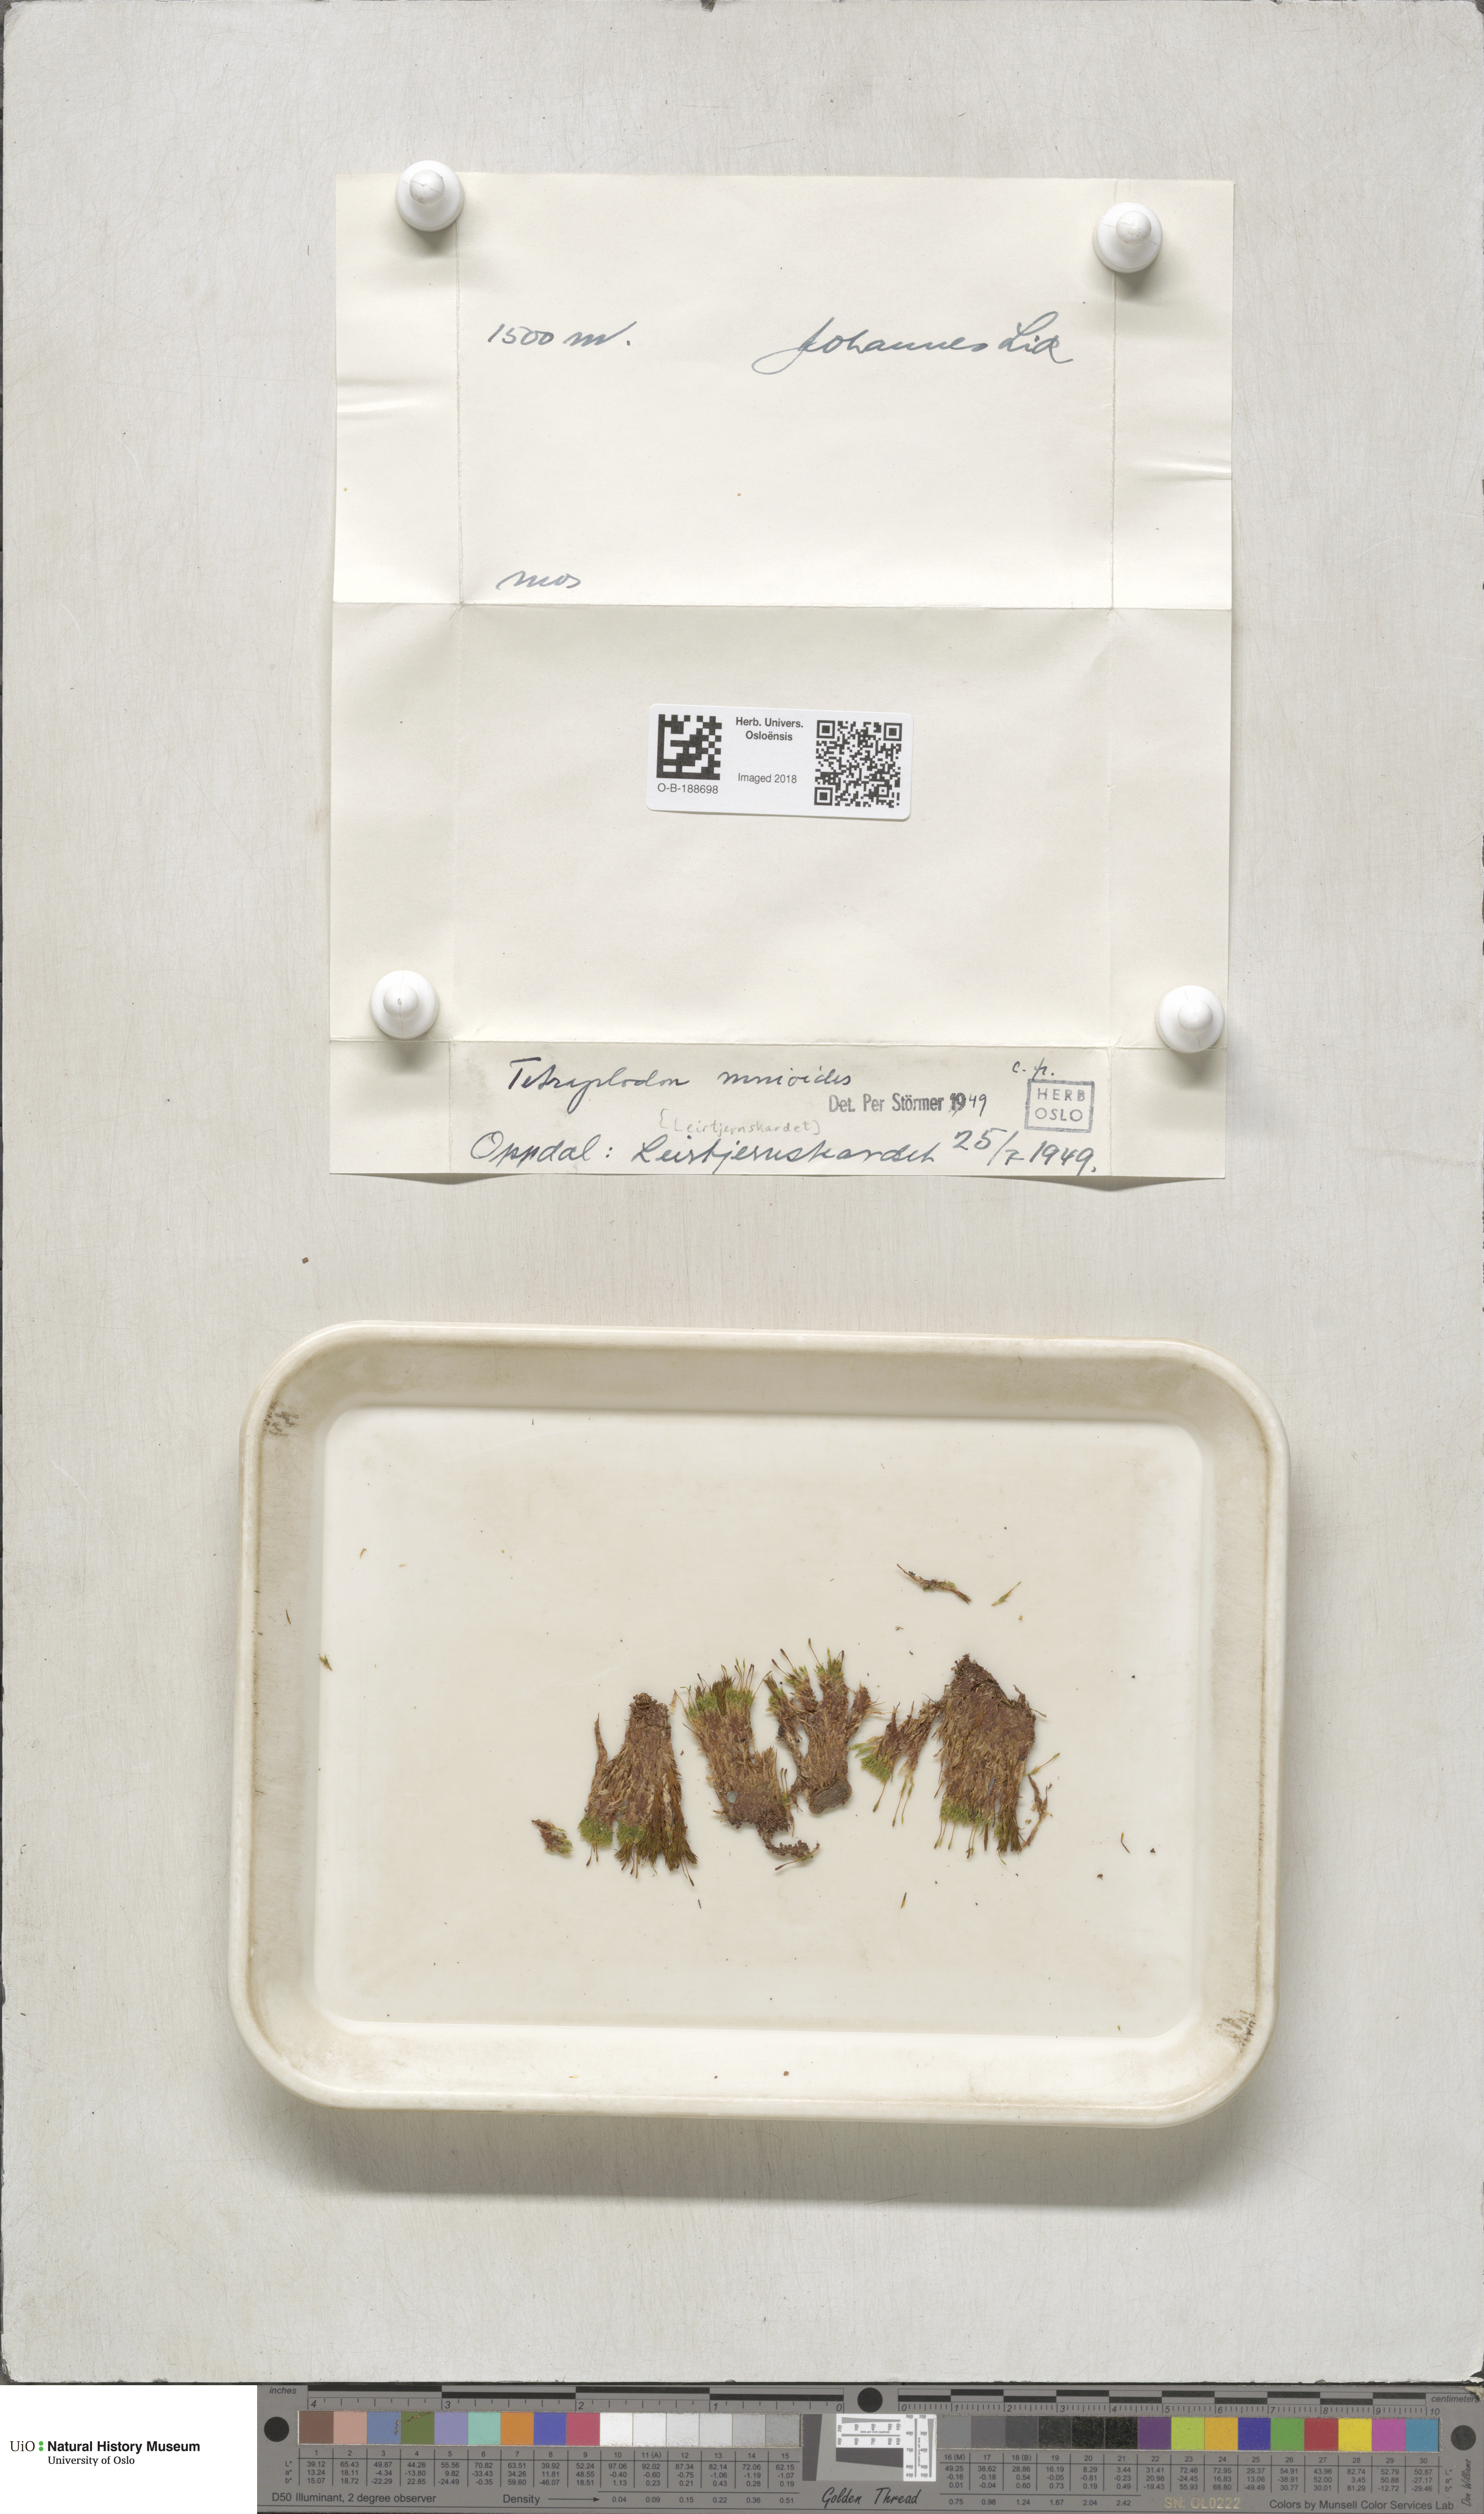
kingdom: Plantae
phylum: Bryophyta
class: Bryopsida
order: Splachnales
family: Splachnaceae
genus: Tetraplodon
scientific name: Tetraplodon mnioides
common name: Entire-leaved nitrogen moss
